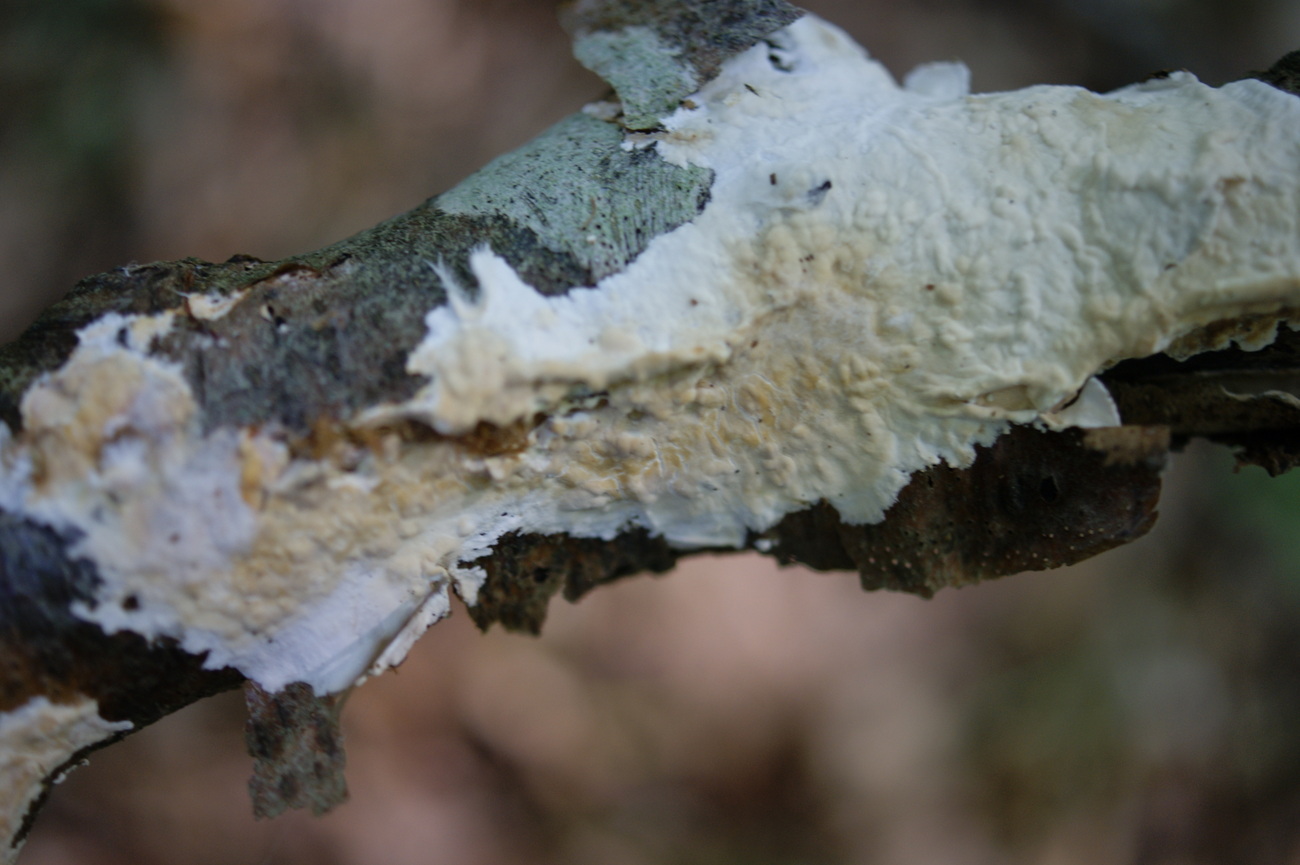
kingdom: Fungi
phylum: Basidiomycota
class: Agaricomycetes
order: Agaricales
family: Physalacriaceae
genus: Cylindrobasidium
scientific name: Cylindrobasidium evolvens
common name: sprækkehinde
